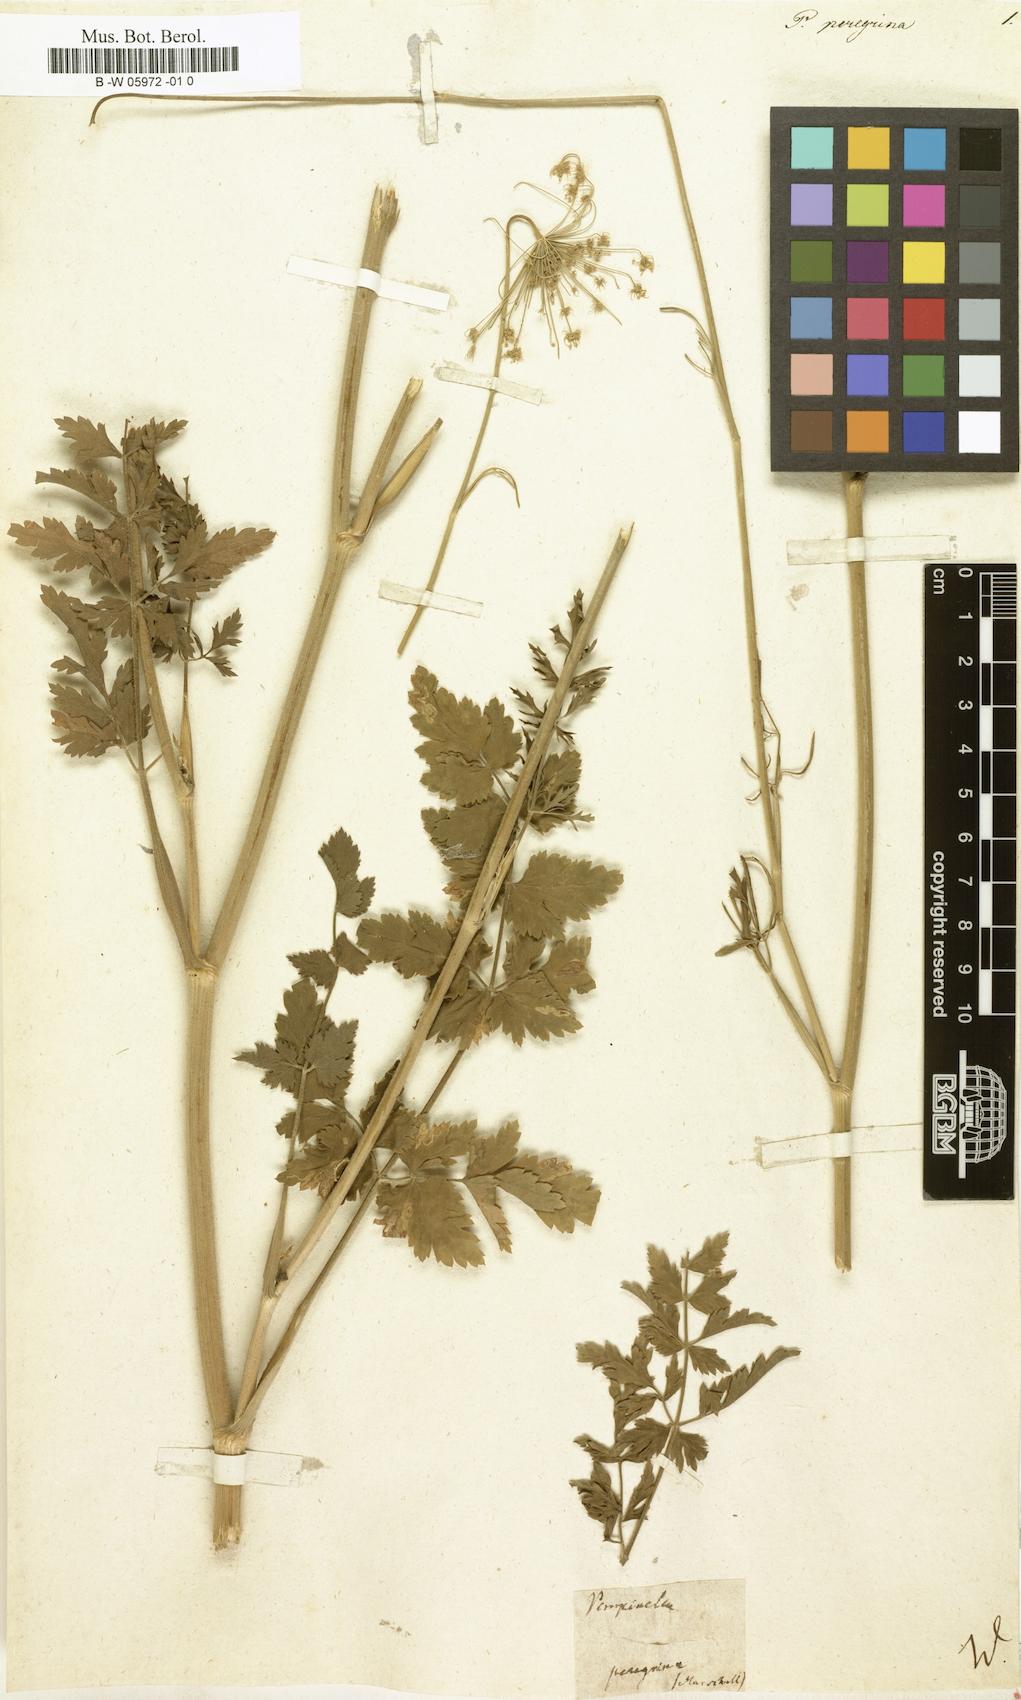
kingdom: Plantae
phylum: Tracheophyta
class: Magnoliopsida
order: Apiales
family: Apiaceae
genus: Pimpinella
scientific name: Pimpinella peregrina
